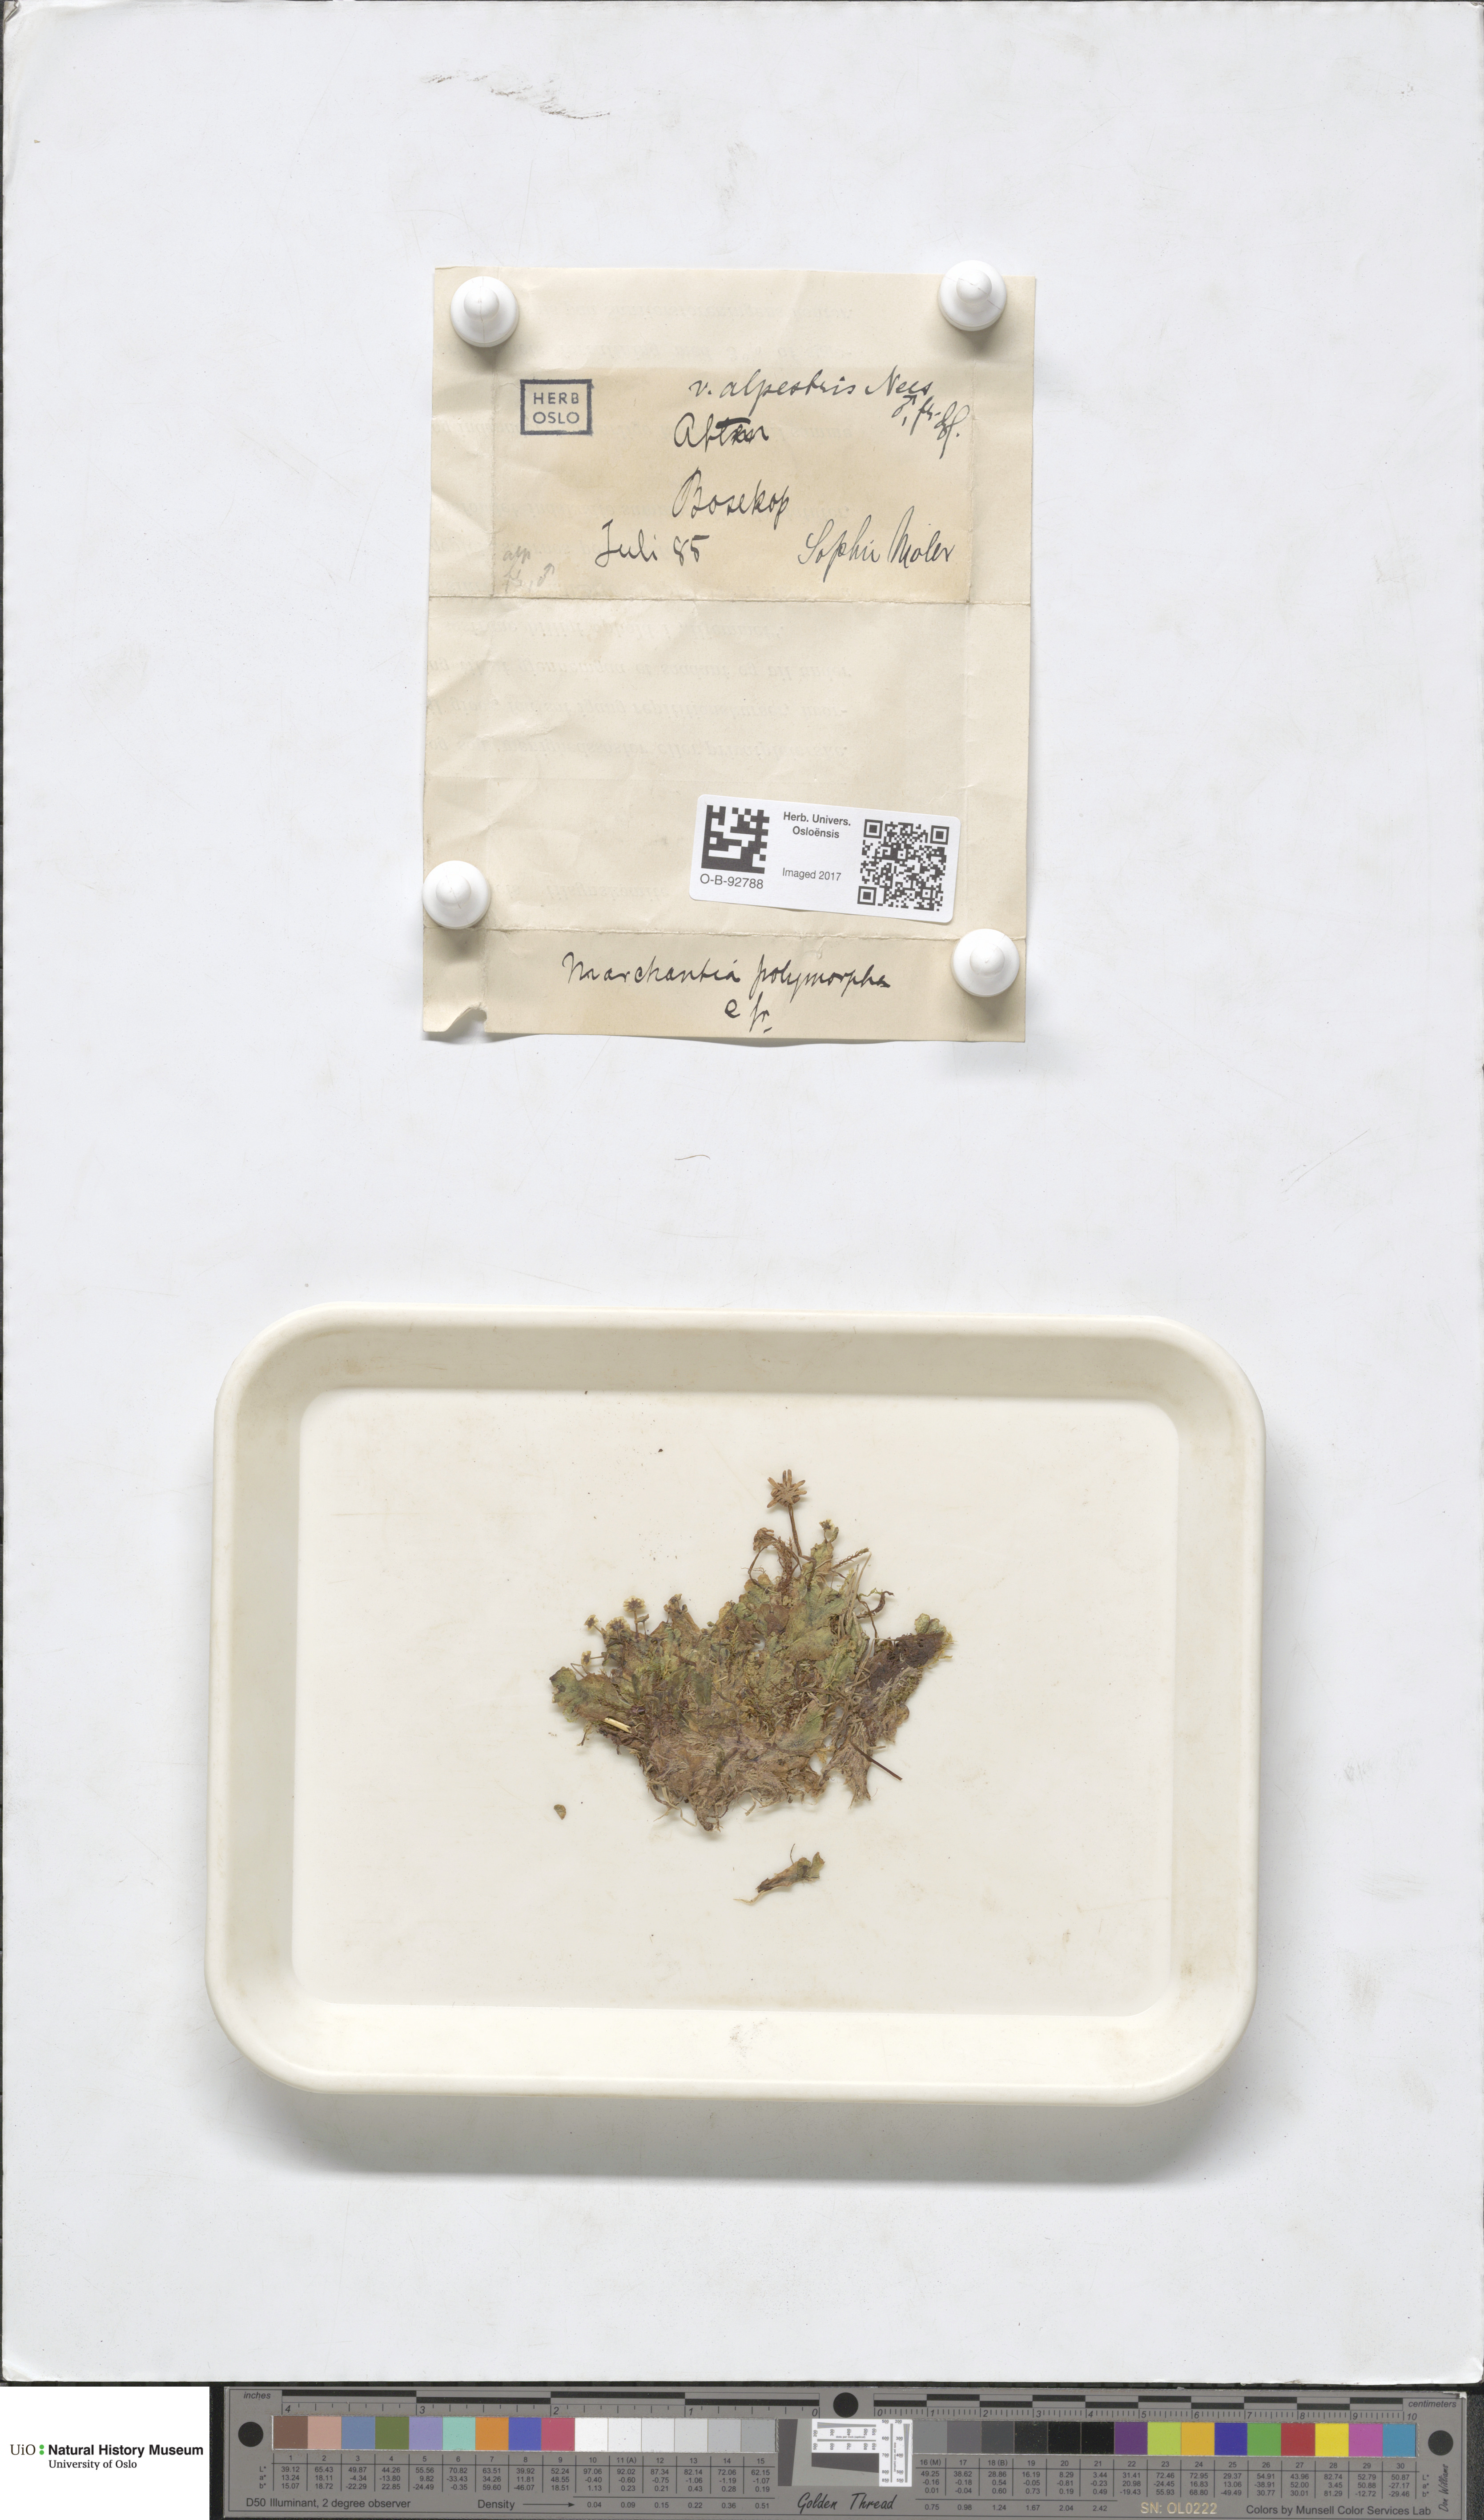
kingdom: Plantae
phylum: Marchantiophyta
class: Marchantiopsida
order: Marchantiales
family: Marchantiaceae
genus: Marchantia
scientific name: Marchantia polymorpha
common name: Common liverwort
